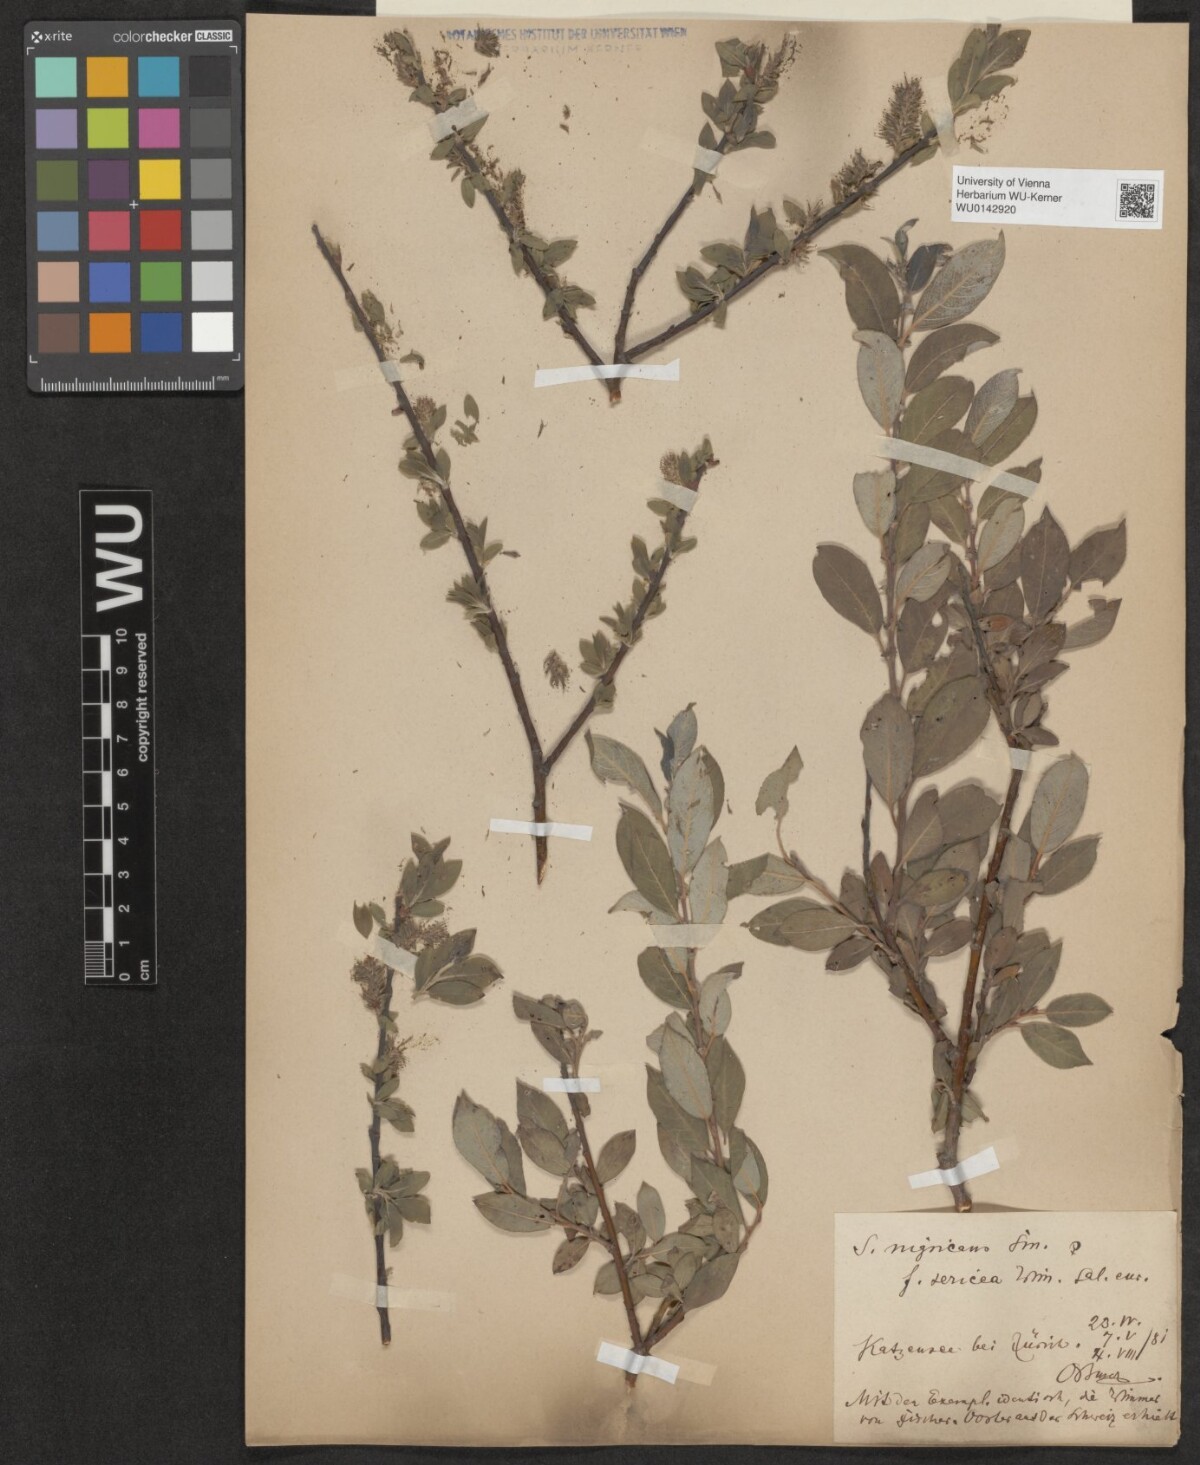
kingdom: Plantae
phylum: Tracheophyta
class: Magnoliopsida
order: Malpighiales
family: Salicaceae
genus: Salix
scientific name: Salix myrsinifolia
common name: Dark-leaved willow
